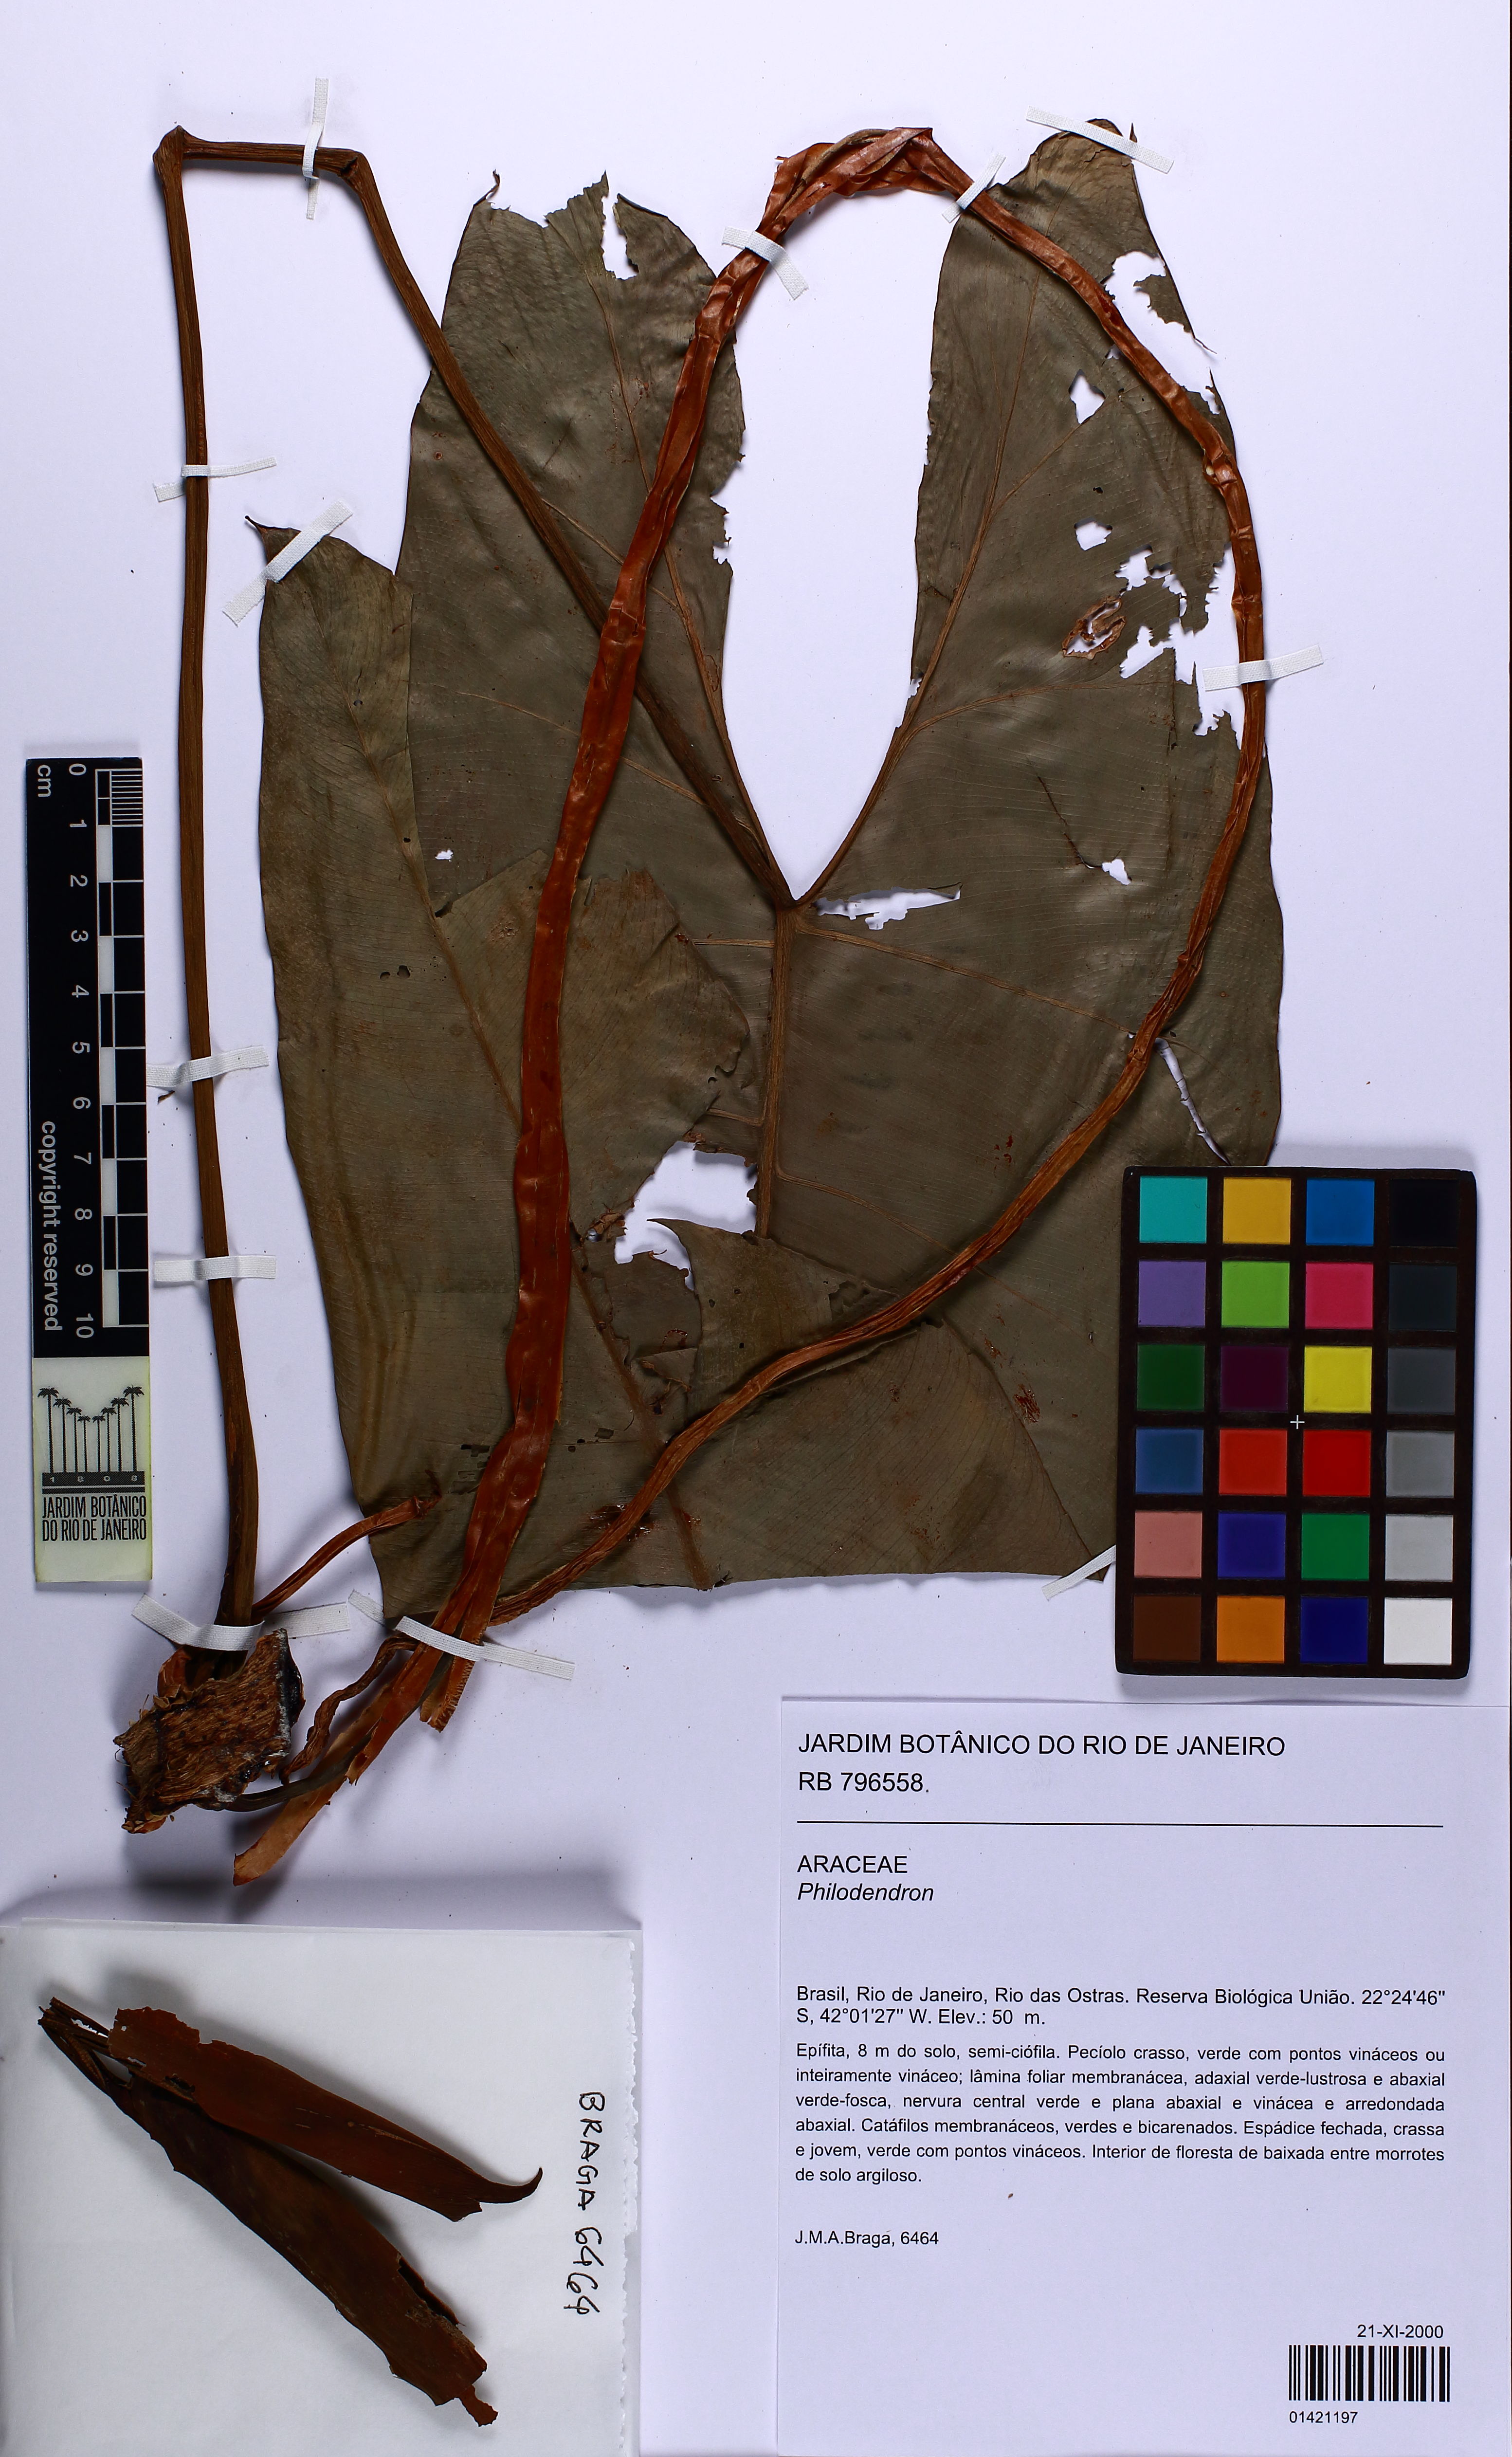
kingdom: Plantae
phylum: Tracheophyta
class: Liliopsida
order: Alismatales
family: Araceae
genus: Philodendron
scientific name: Philodendron
